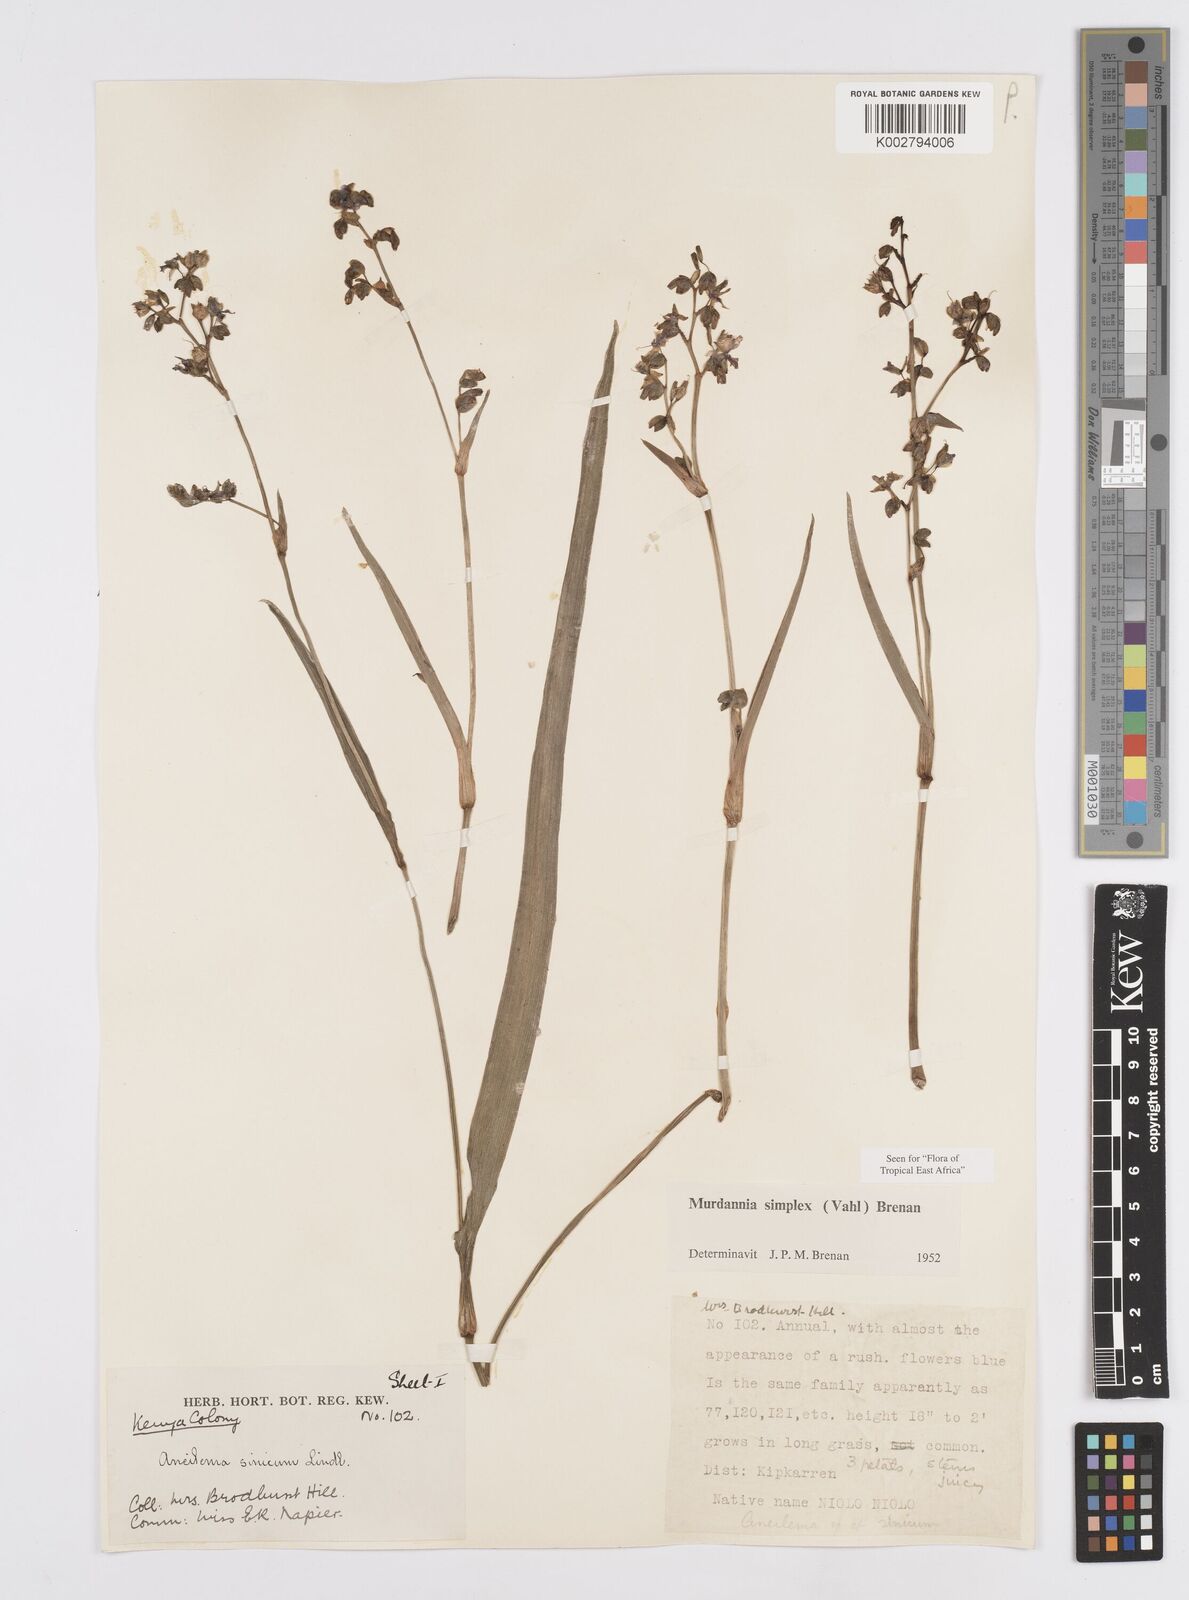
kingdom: Plantae
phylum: Tracheophyta
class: Liliopsida
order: Commelinales
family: Commelinaceae
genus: Murdannia
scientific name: Murdannia simplex
